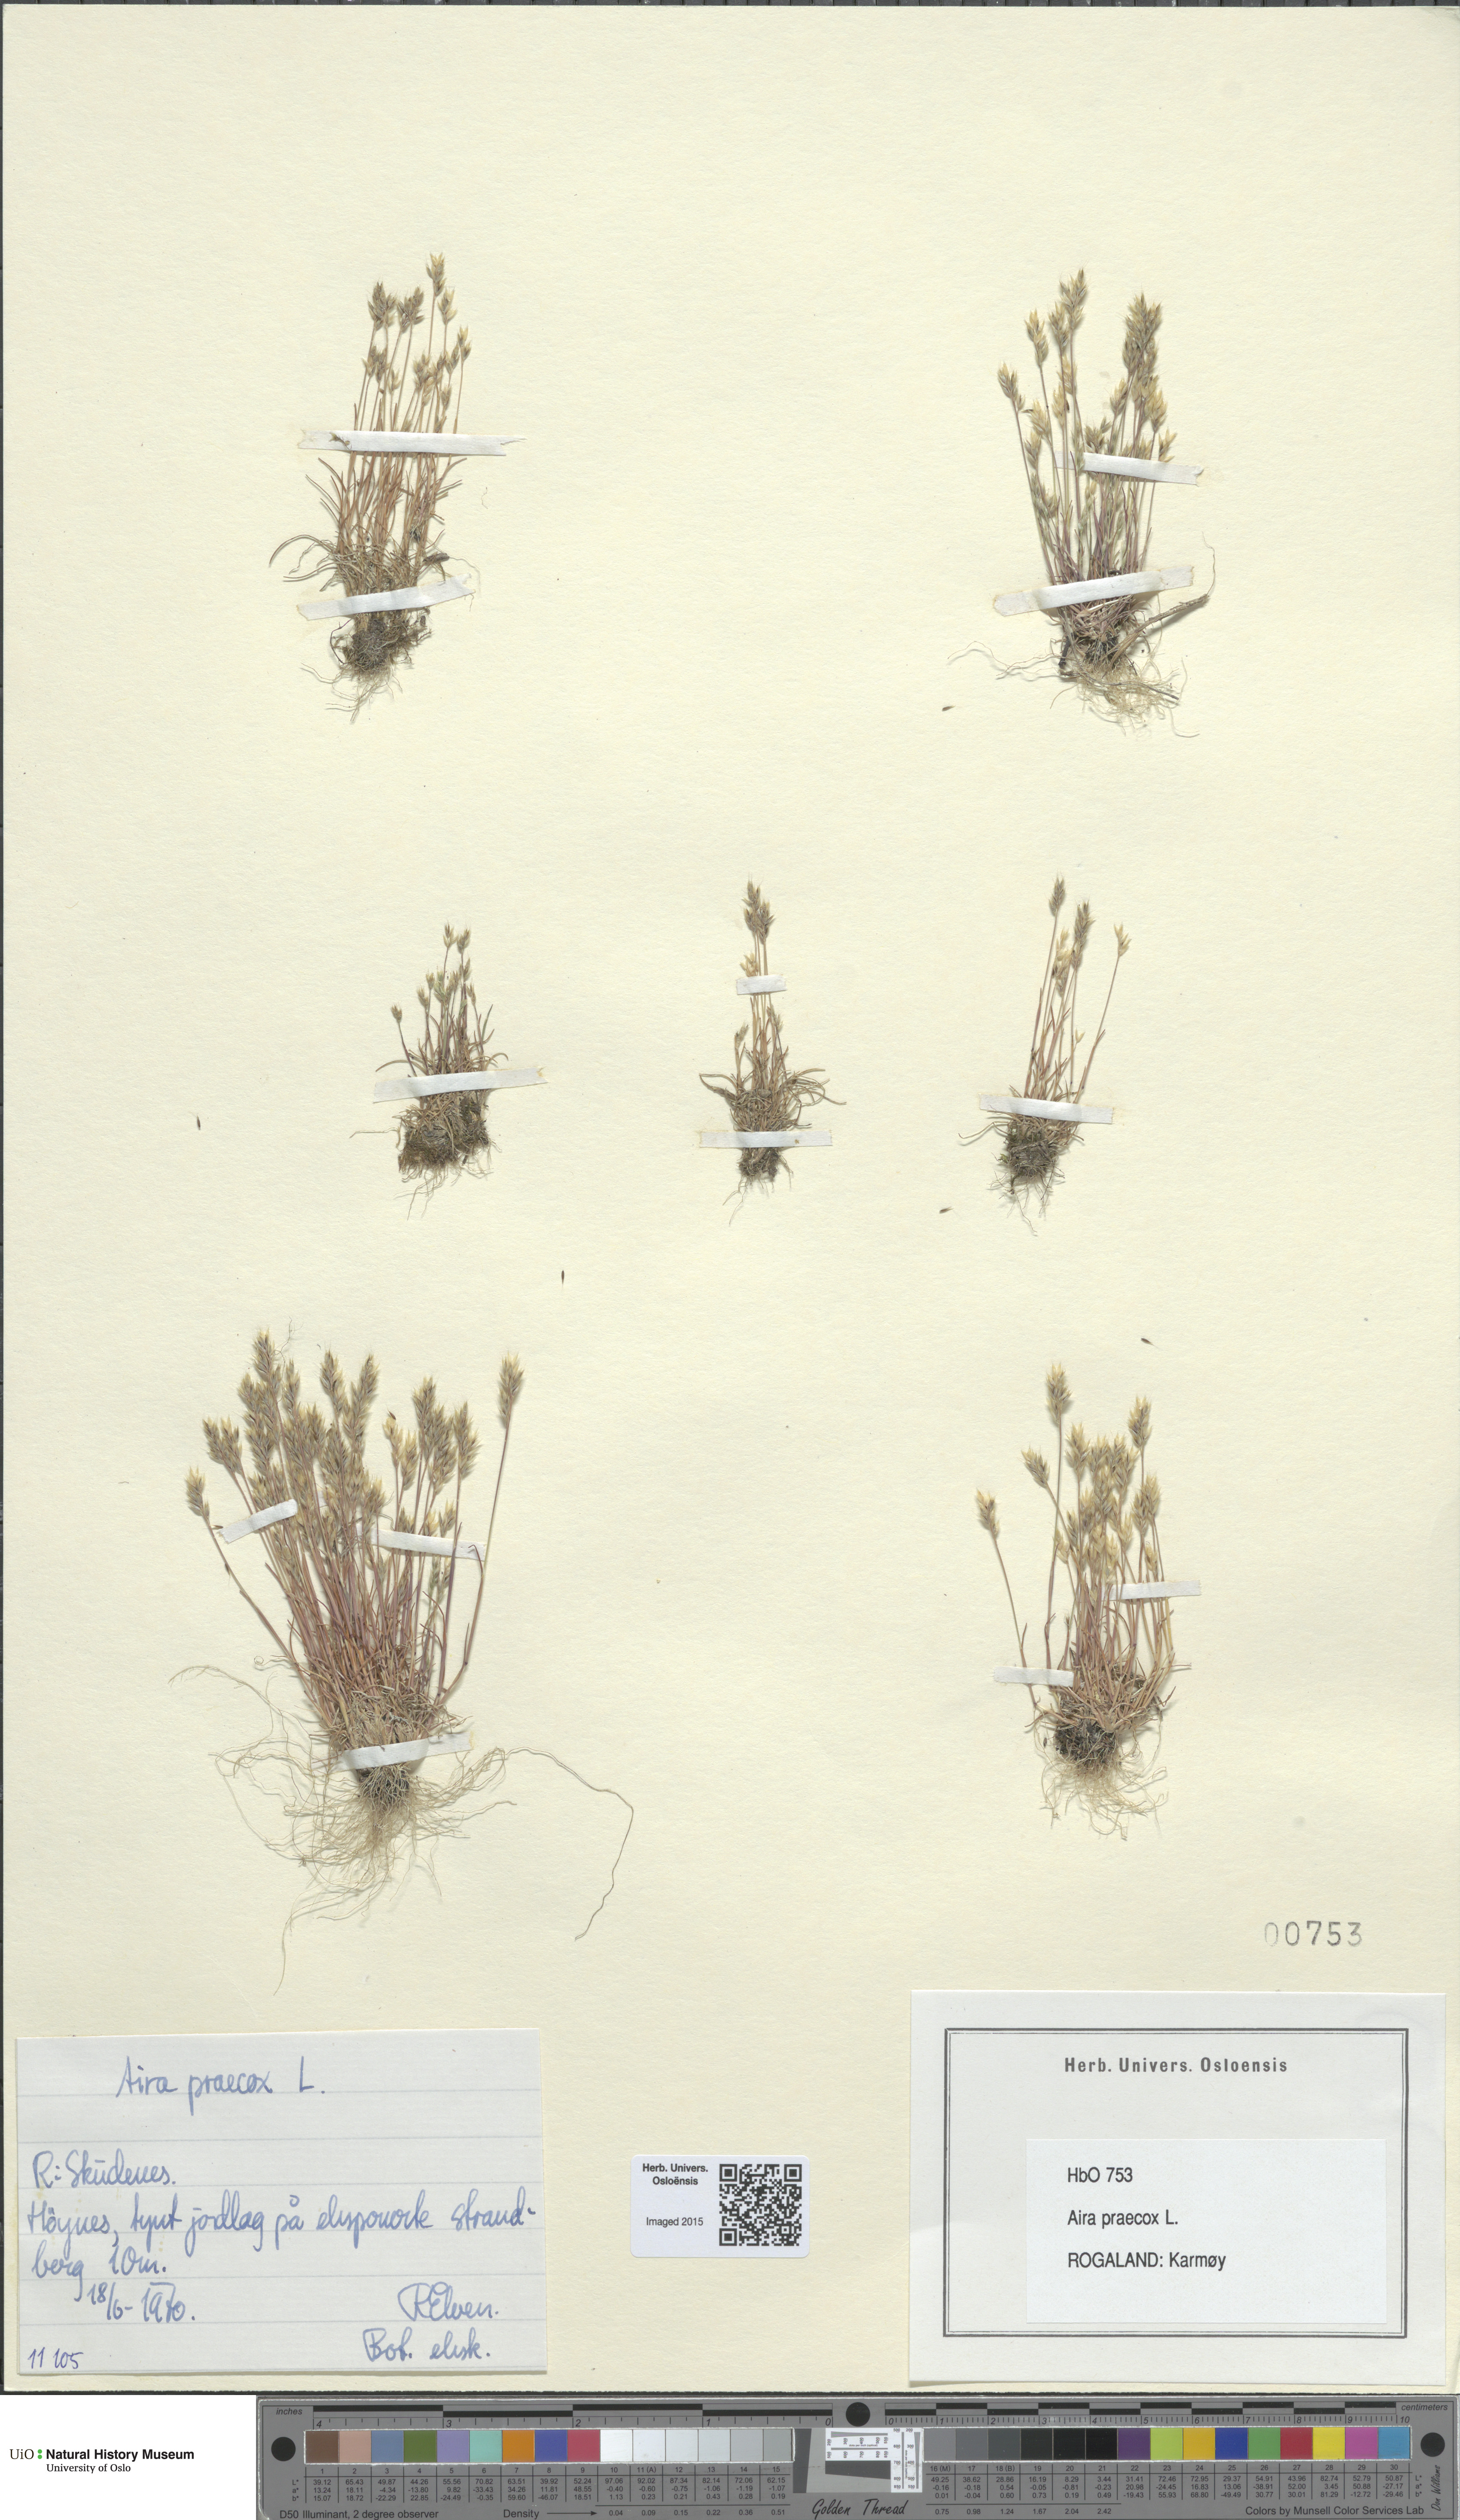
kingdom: Plantae
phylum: Tracheophyta
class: Liliopsida
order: Poales
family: Poaceae
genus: Aira
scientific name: Aira praecox
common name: Early hair-grass
